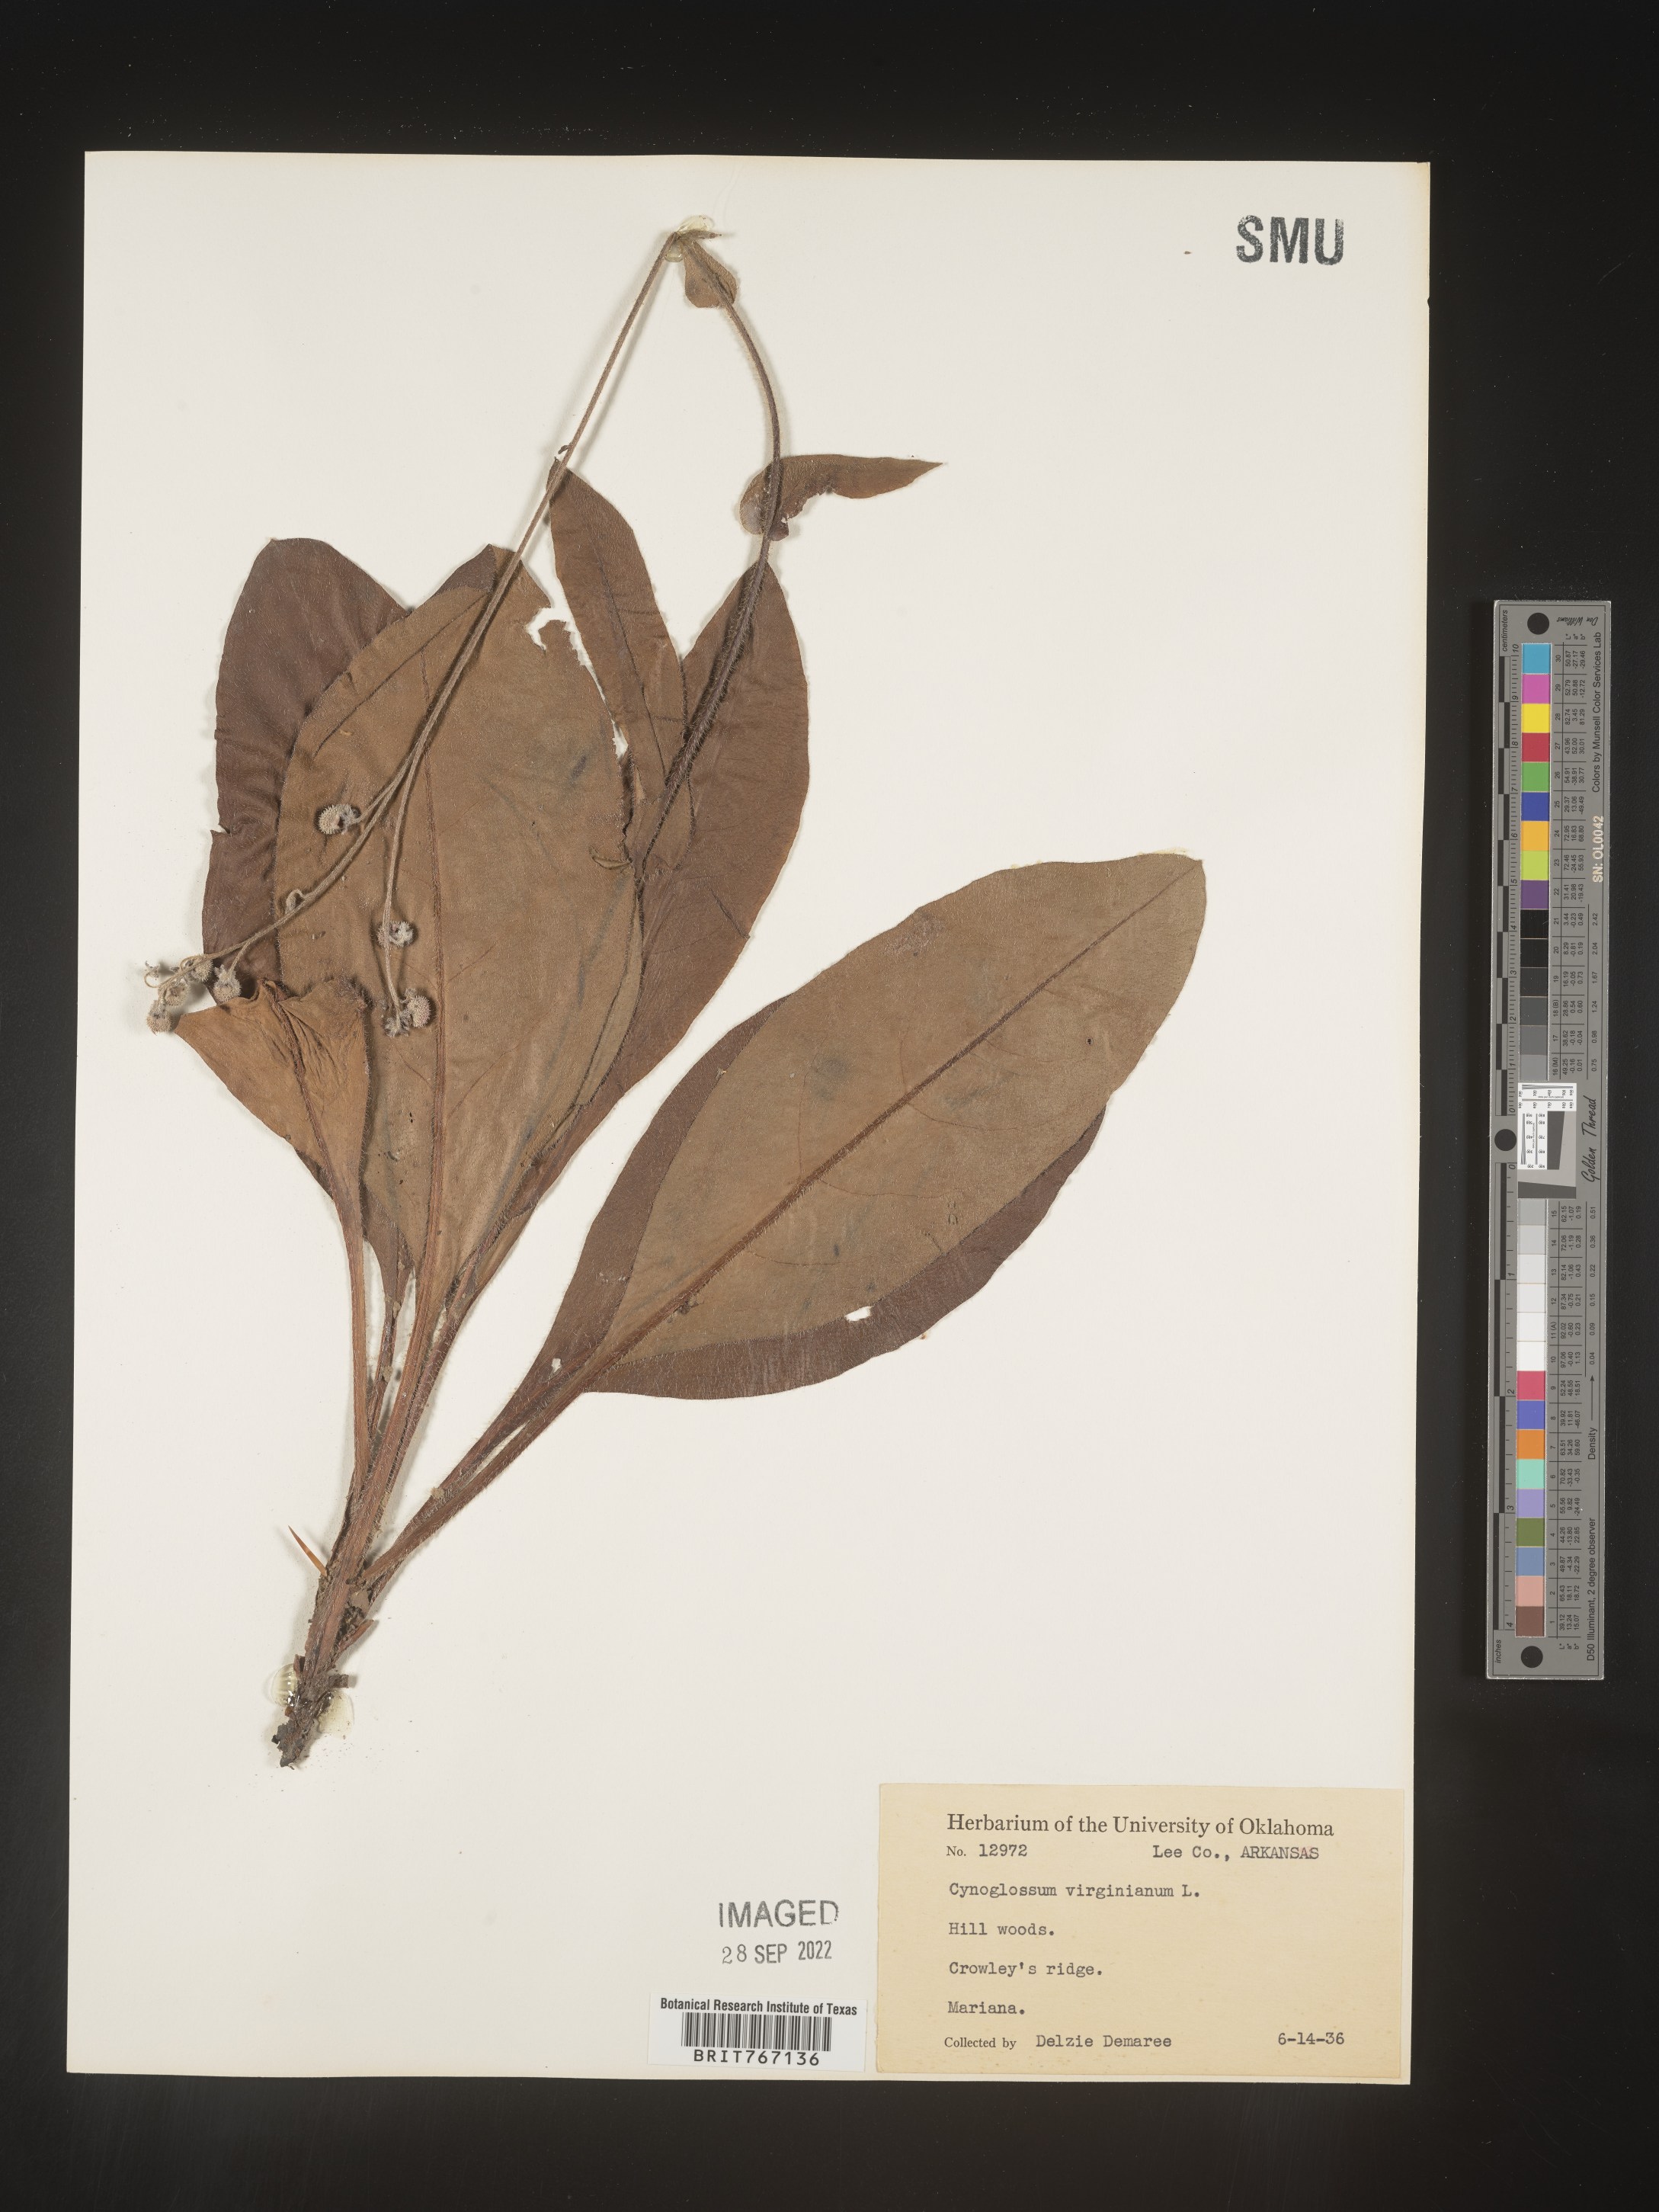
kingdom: Plantae
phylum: Tracheophyta
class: Magnoliopsida
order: Boraginales
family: Boraginaceae
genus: Andersonglossum
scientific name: Andersonglossum virginianum
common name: Wild comfrey
